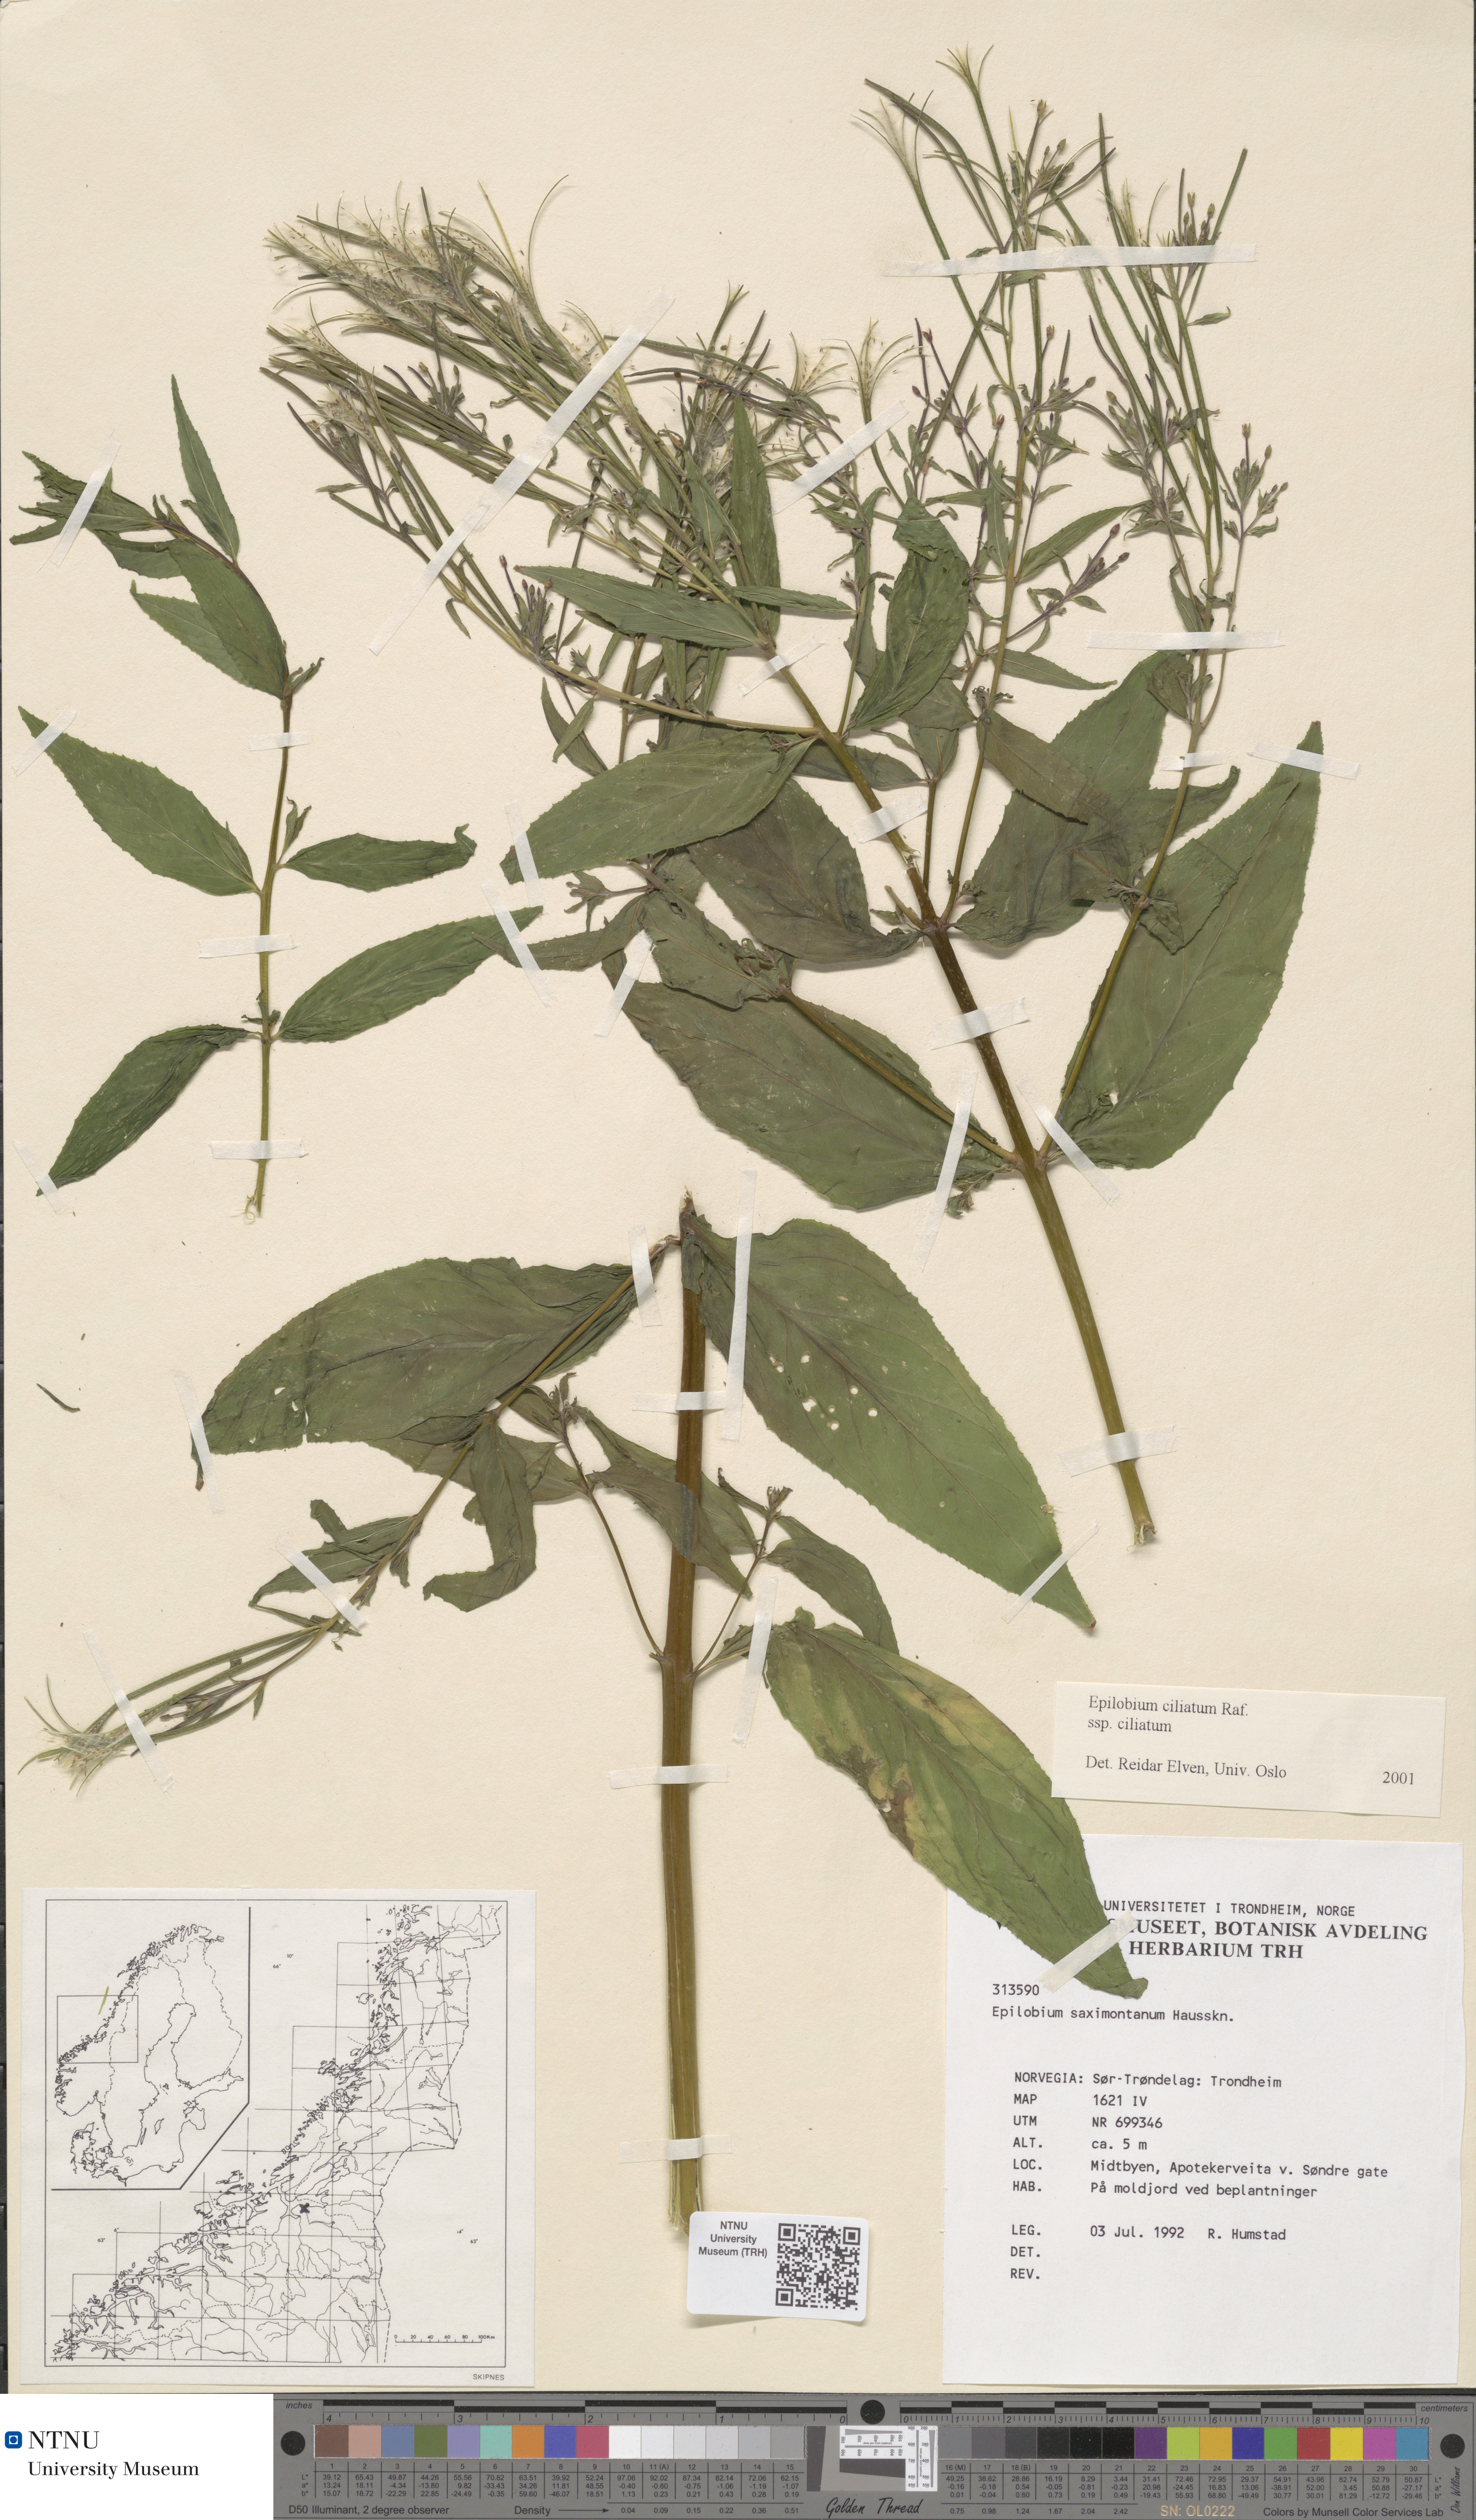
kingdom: Plantae
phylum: Tracheophyta
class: Magnoliopsida
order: Myrtales
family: Onagraceae
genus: Epilobium
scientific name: Epilobium ciliatum
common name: American willowherb
